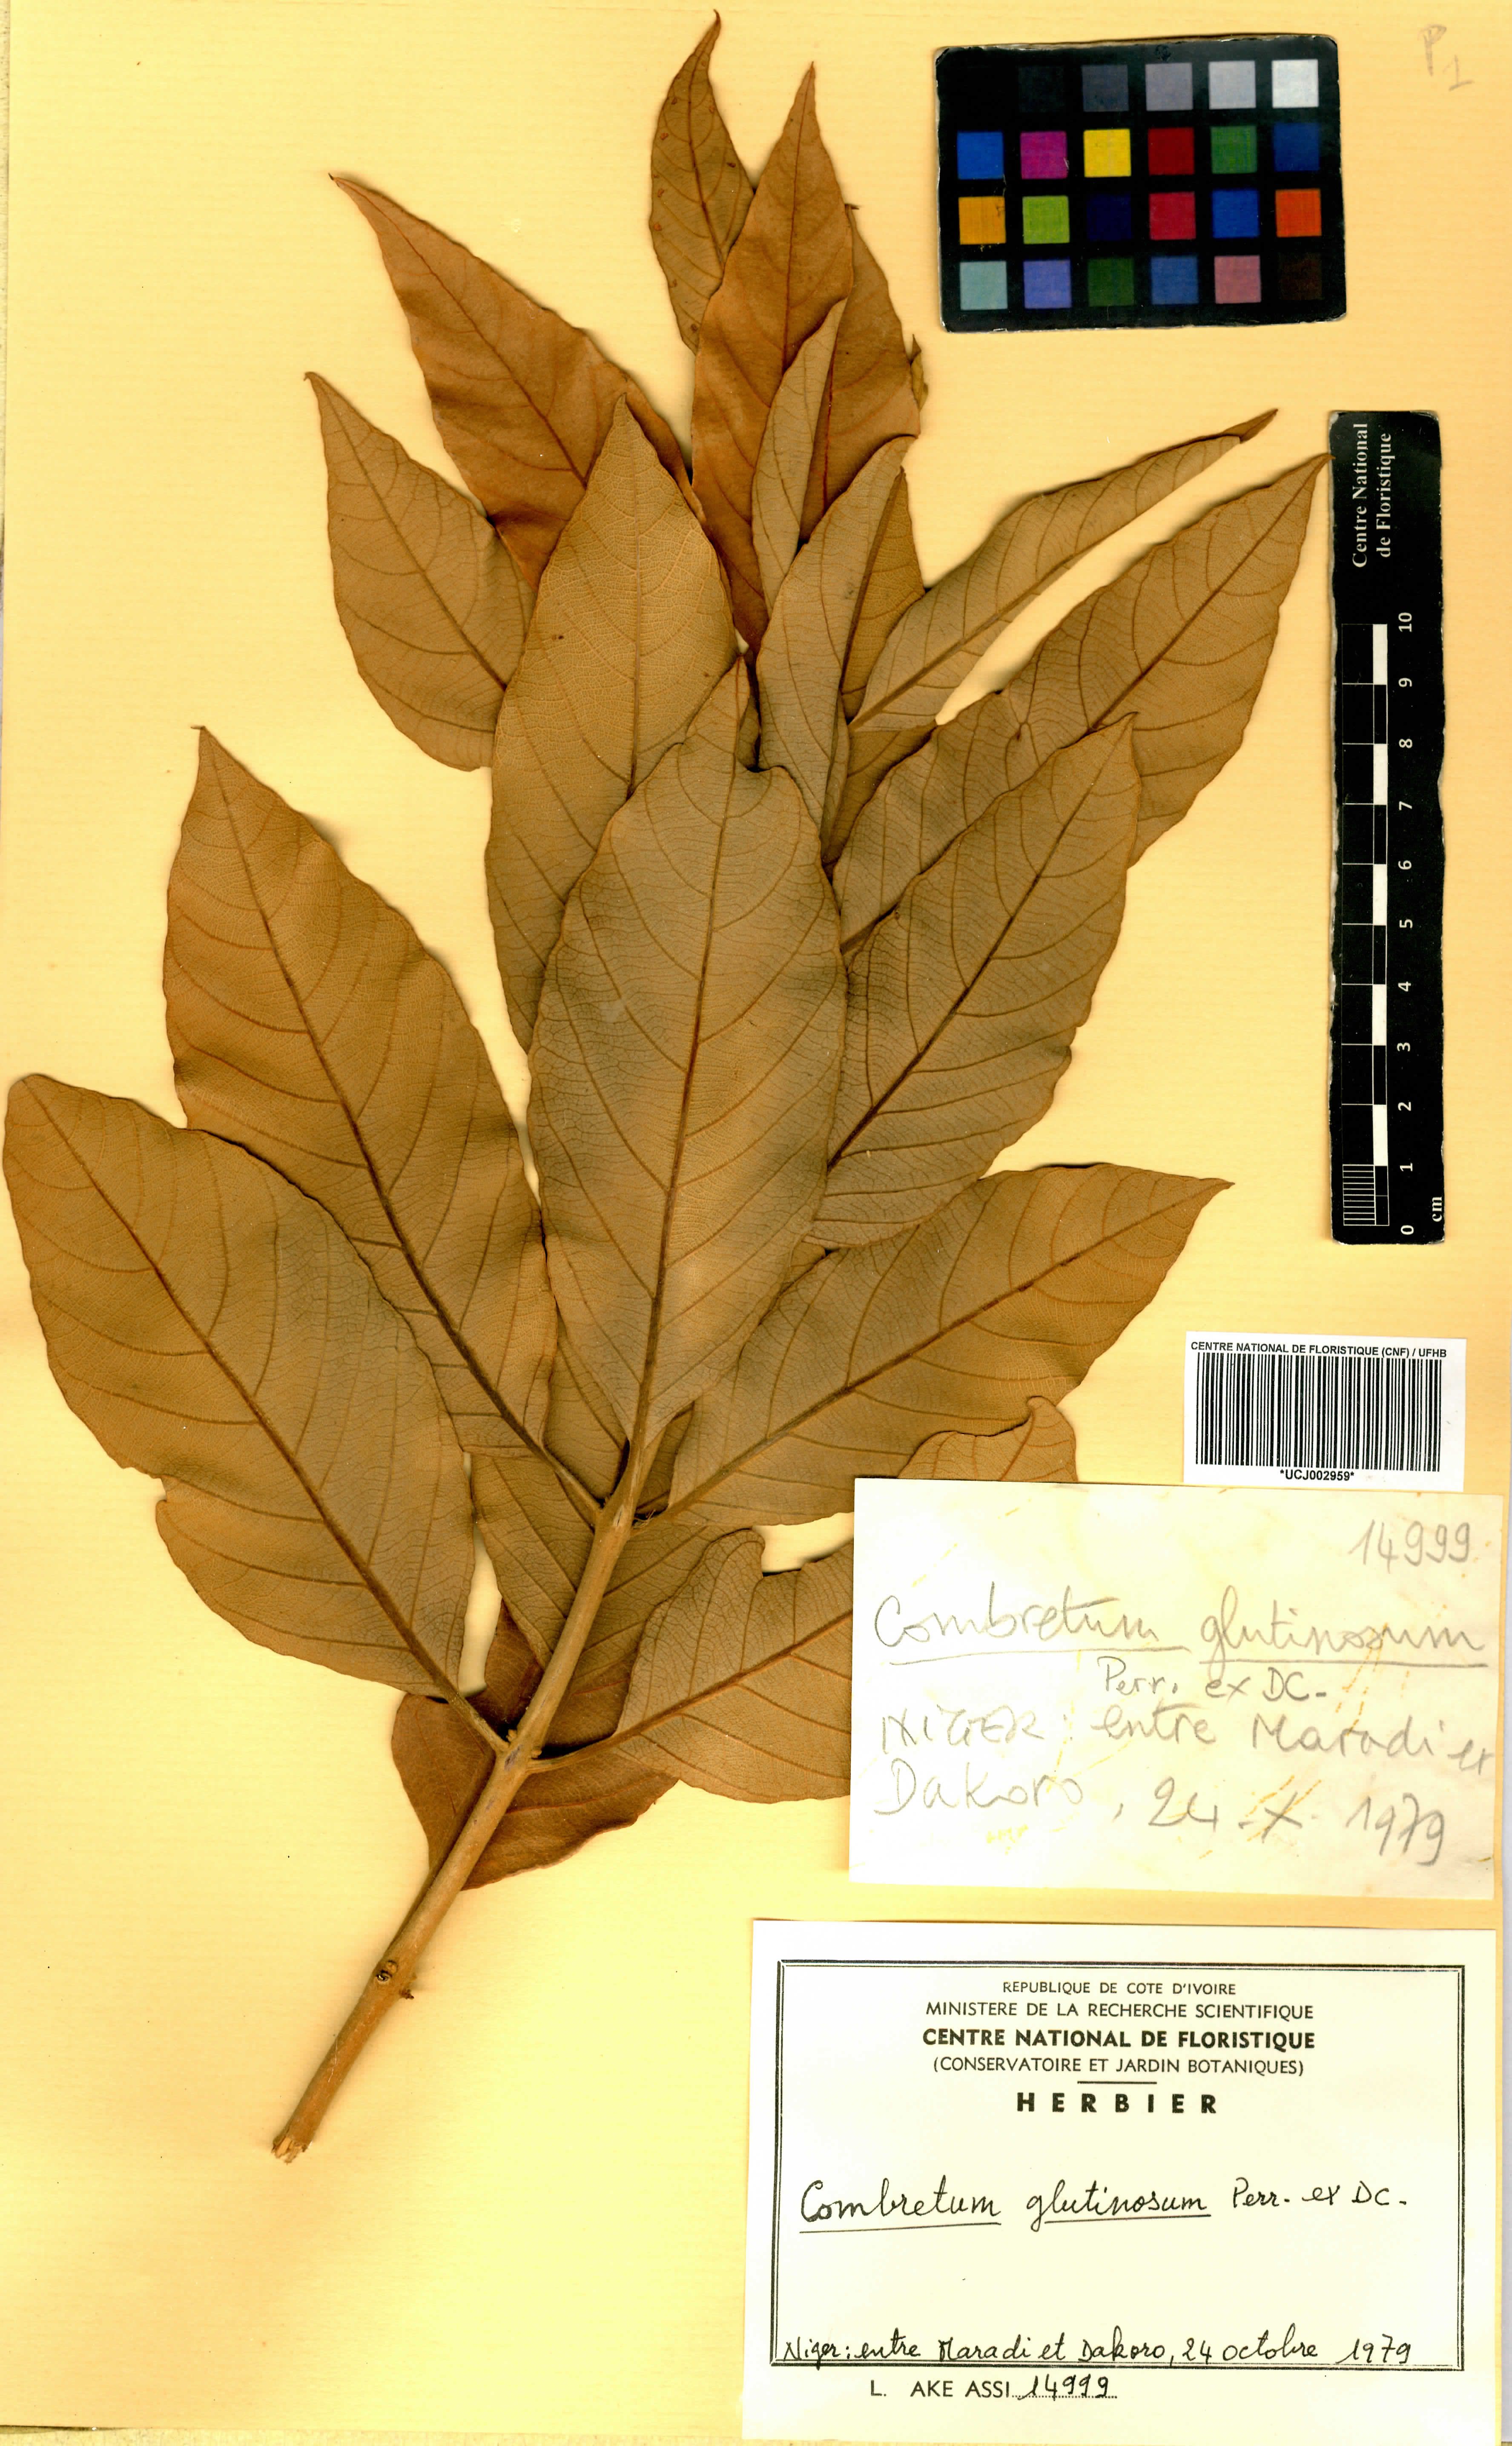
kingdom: Plantae
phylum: Tracheophyta
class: Magnoliopsida
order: Myrtales
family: Combretaceae
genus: Combretum
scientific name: Combretum glutinosum
